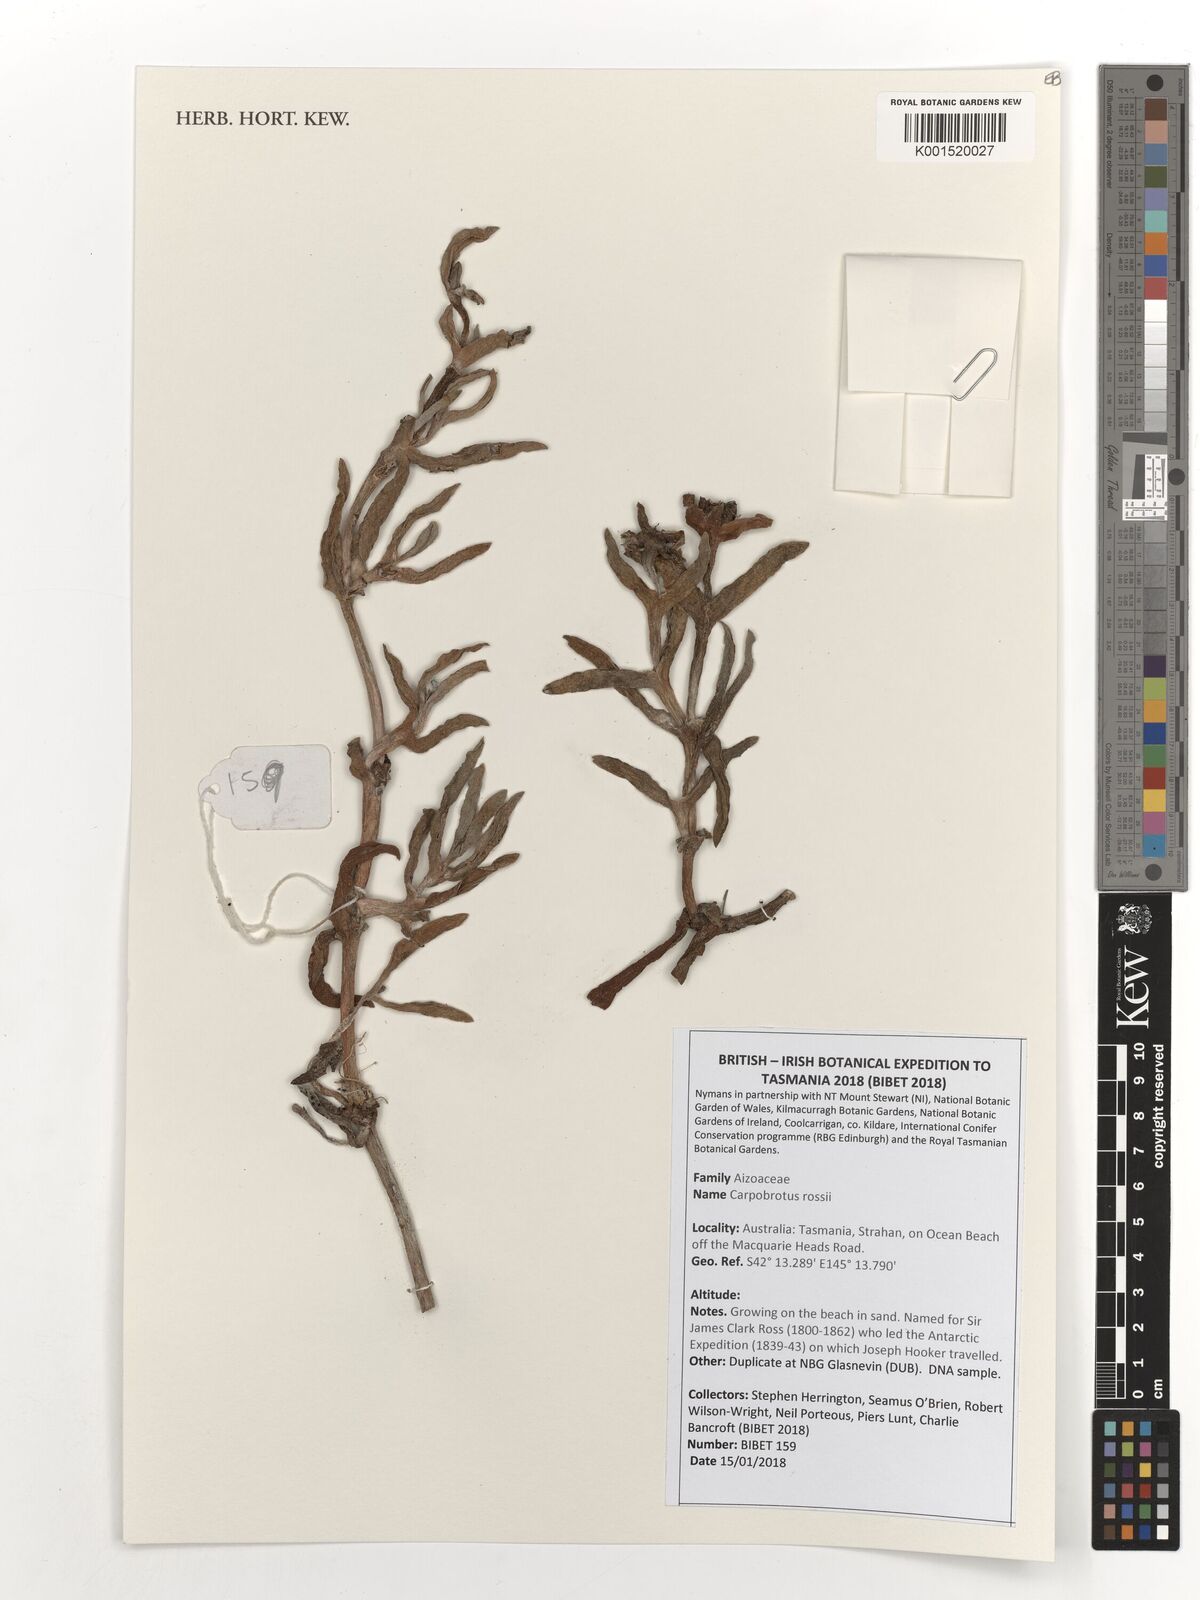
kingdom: Plantae
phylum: Tracheophyta
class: Magnoliopsida
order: Caryophyllales
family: Aizoaceae
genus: Carpobrotus
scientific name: Carpobrotus rossii
